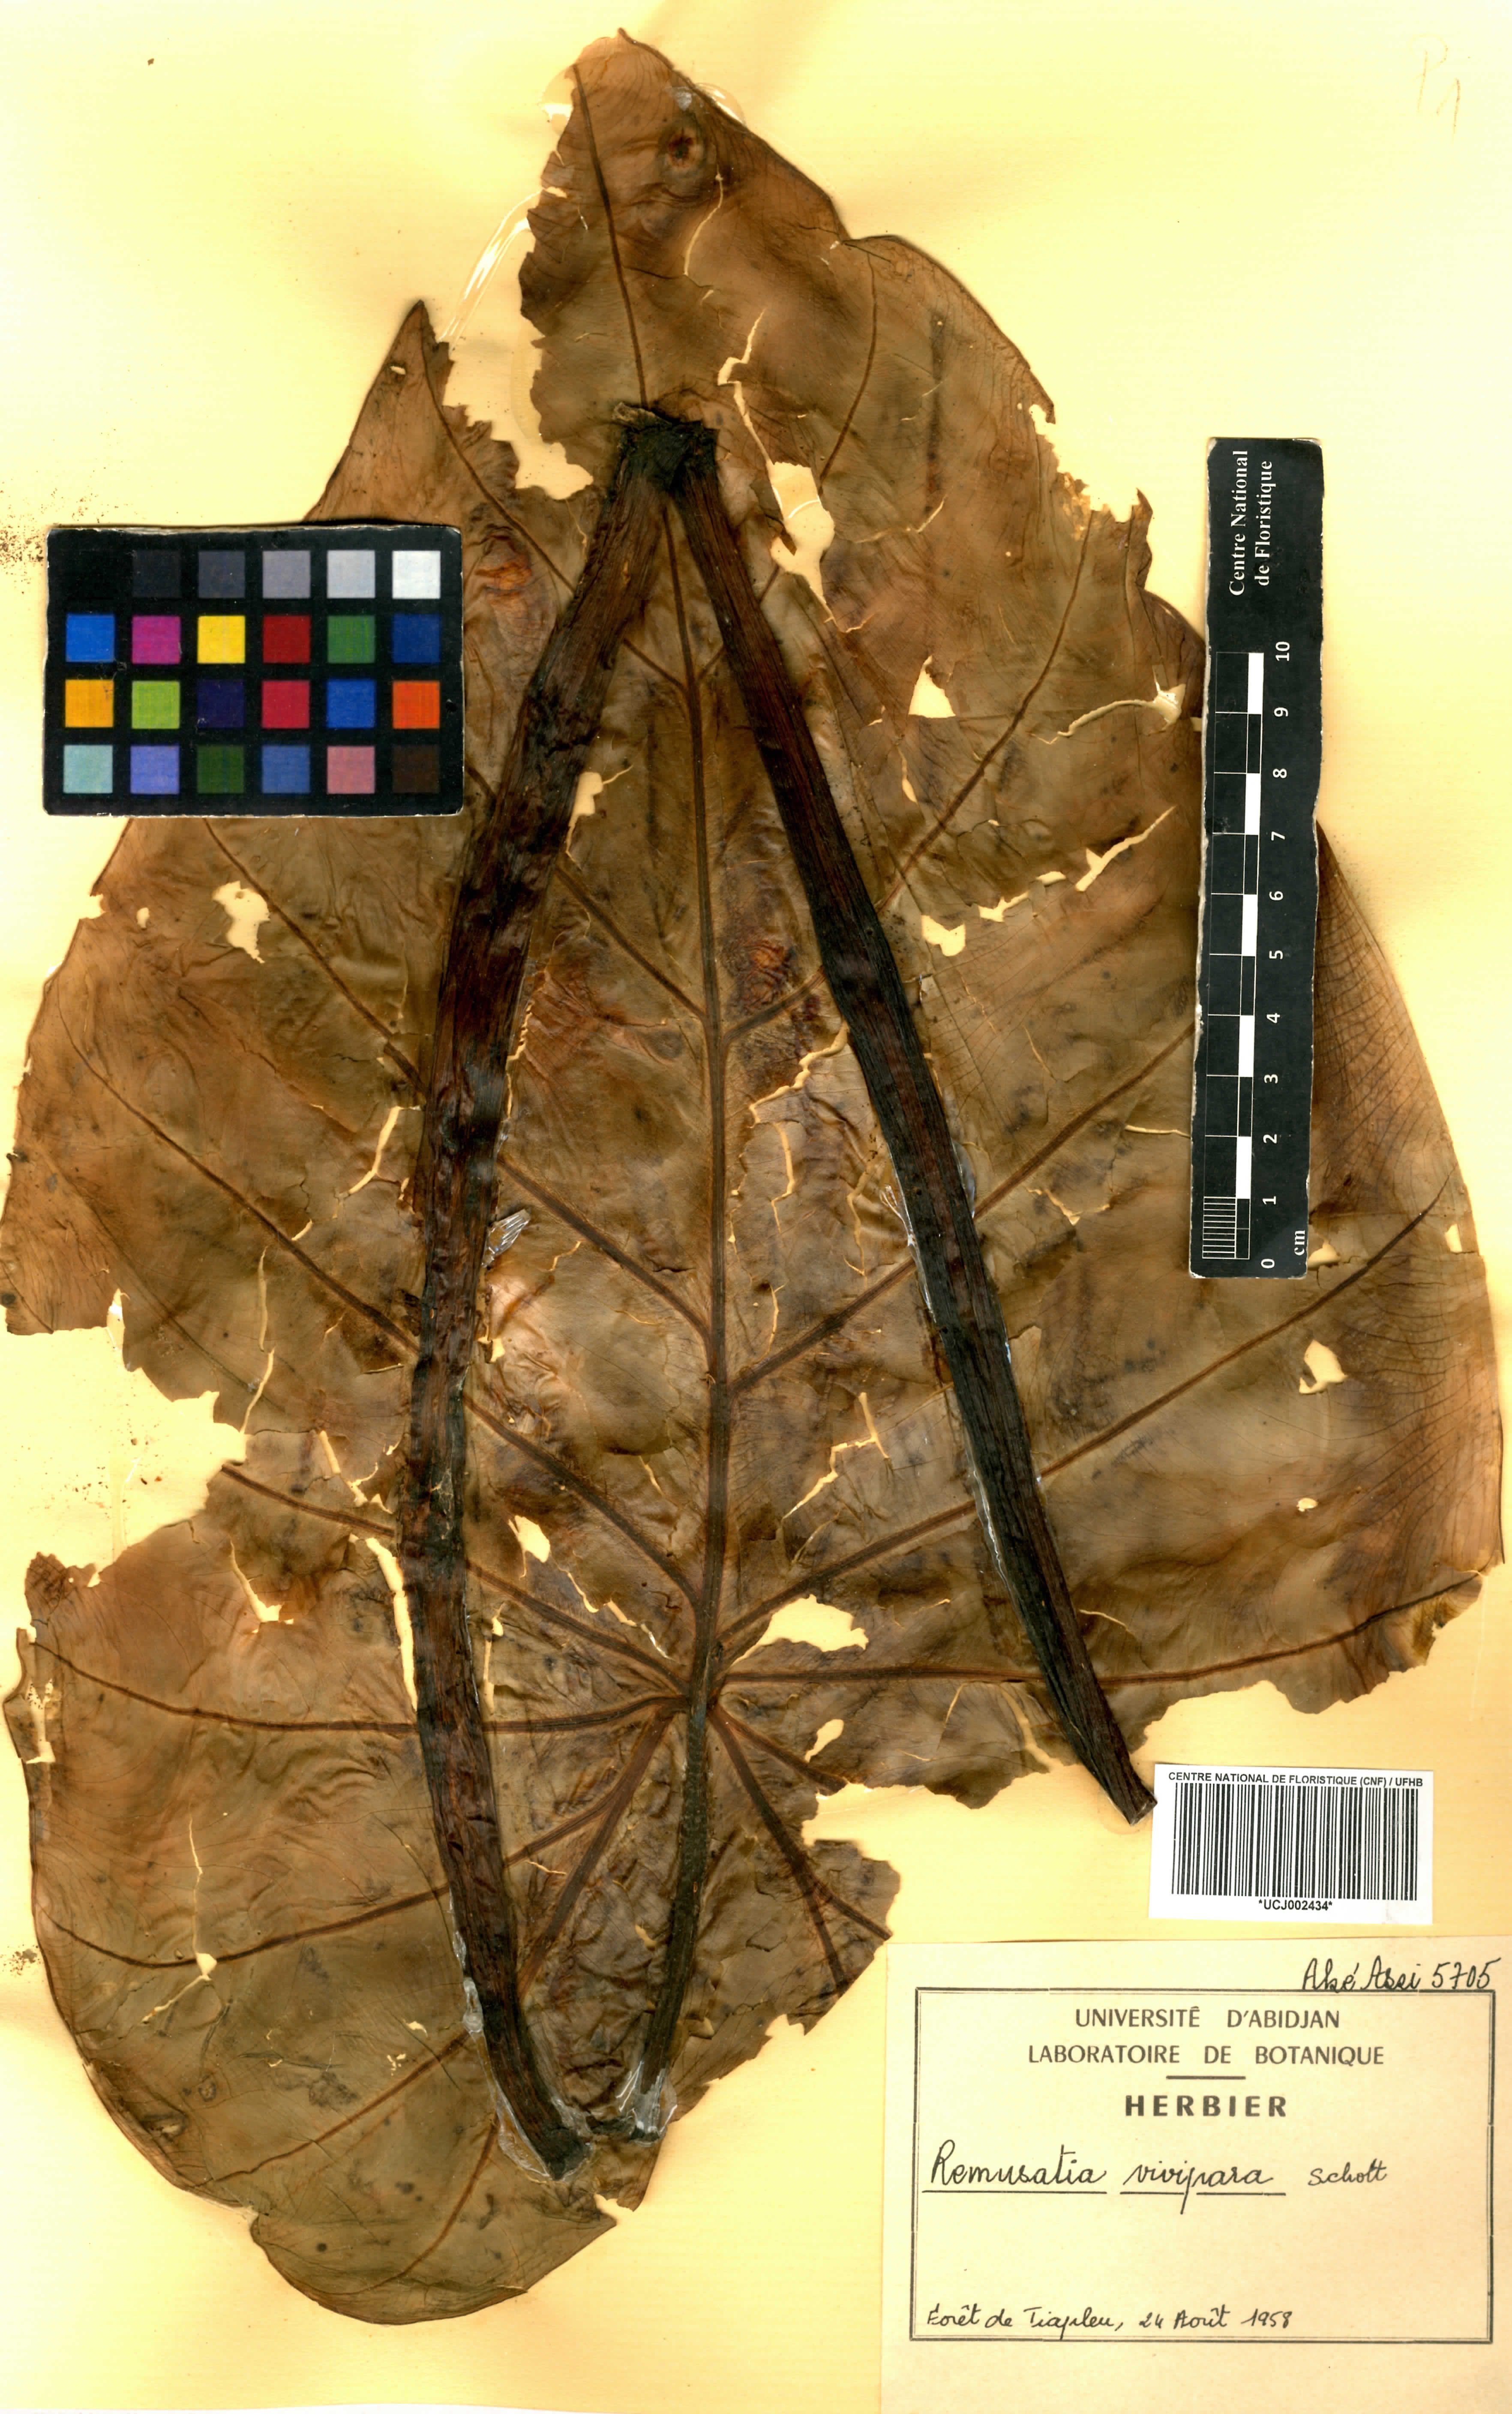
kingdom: Plantae
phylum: Tracheophyta
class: Liliopsida
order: Alismatales
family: Araceae
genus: Remusatia
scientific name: Remusatia vivipara
